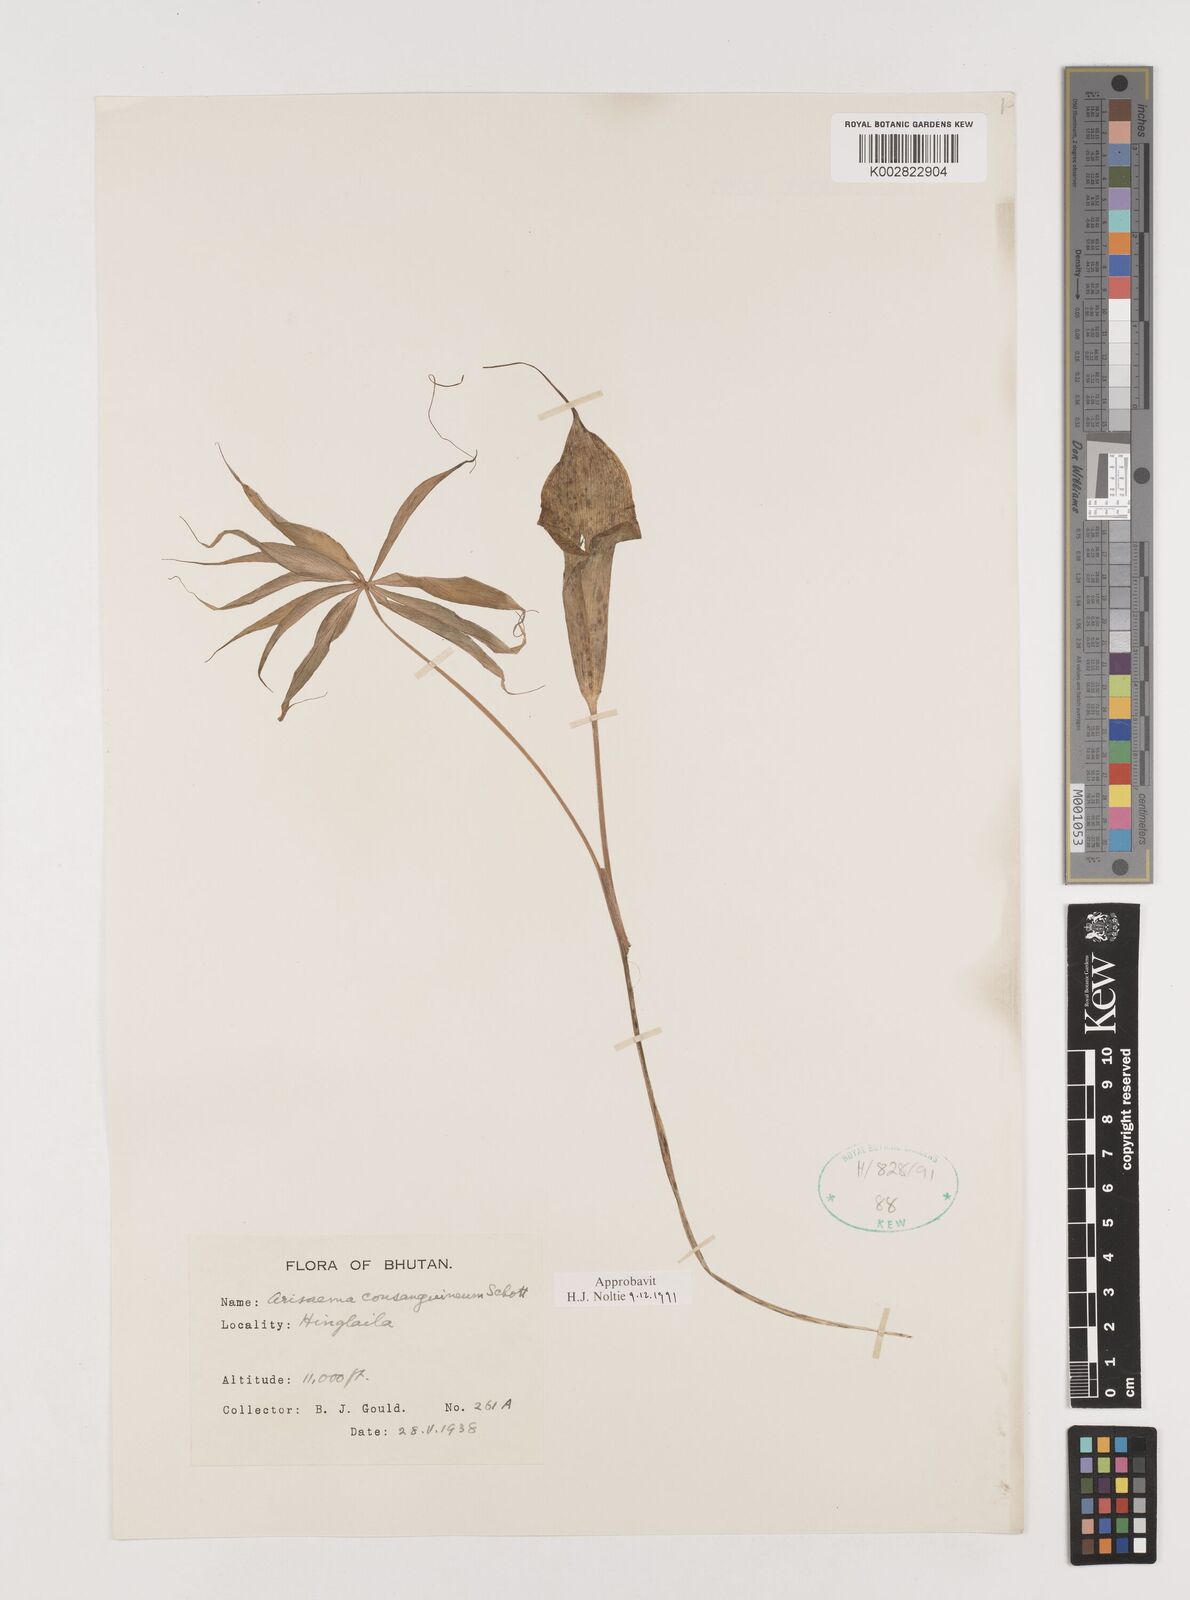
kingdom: Plantae
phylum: Tracheophyta
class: Liliopsida
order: Alismatales
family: Araceae
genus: Arisaema
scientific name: Arisaema erubescens
